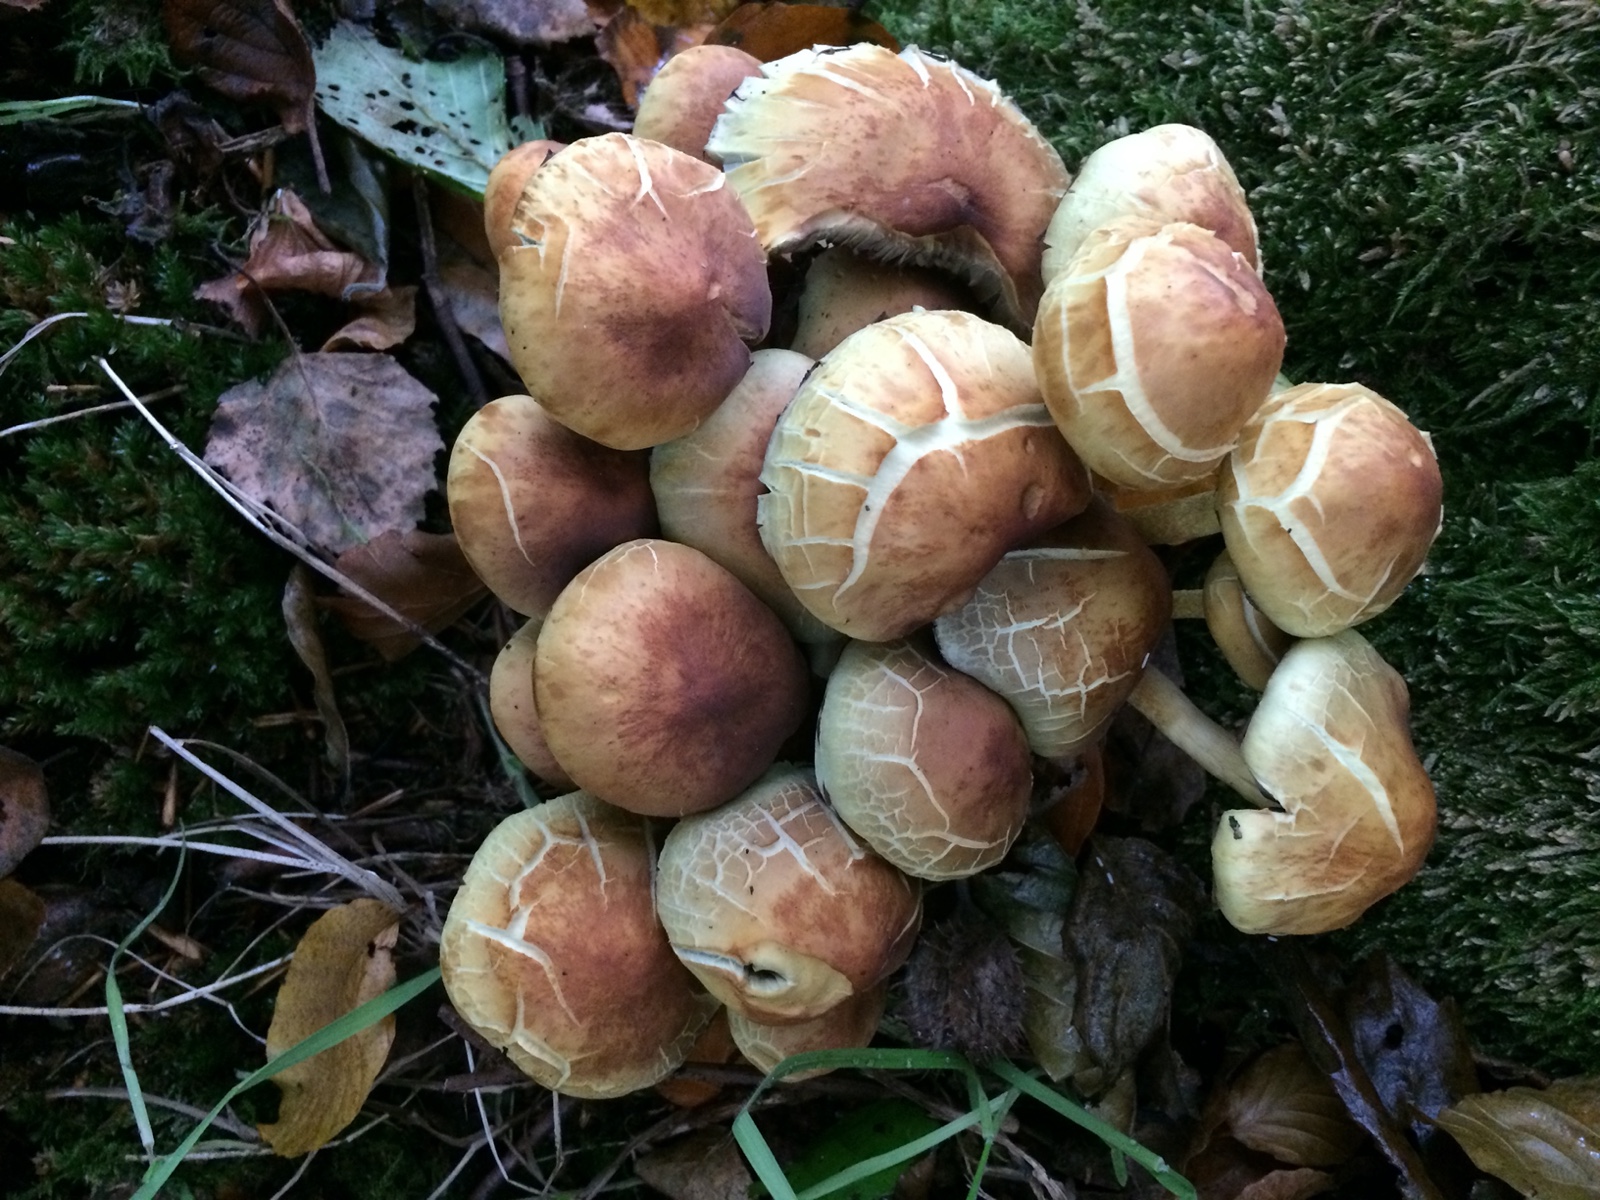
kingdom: Fungi
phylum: Basidiomycota
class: Agaricomycetes
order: Agaricales
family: Strophariaceae
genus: Hypholoma
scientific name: Hypholoma fasciculare
